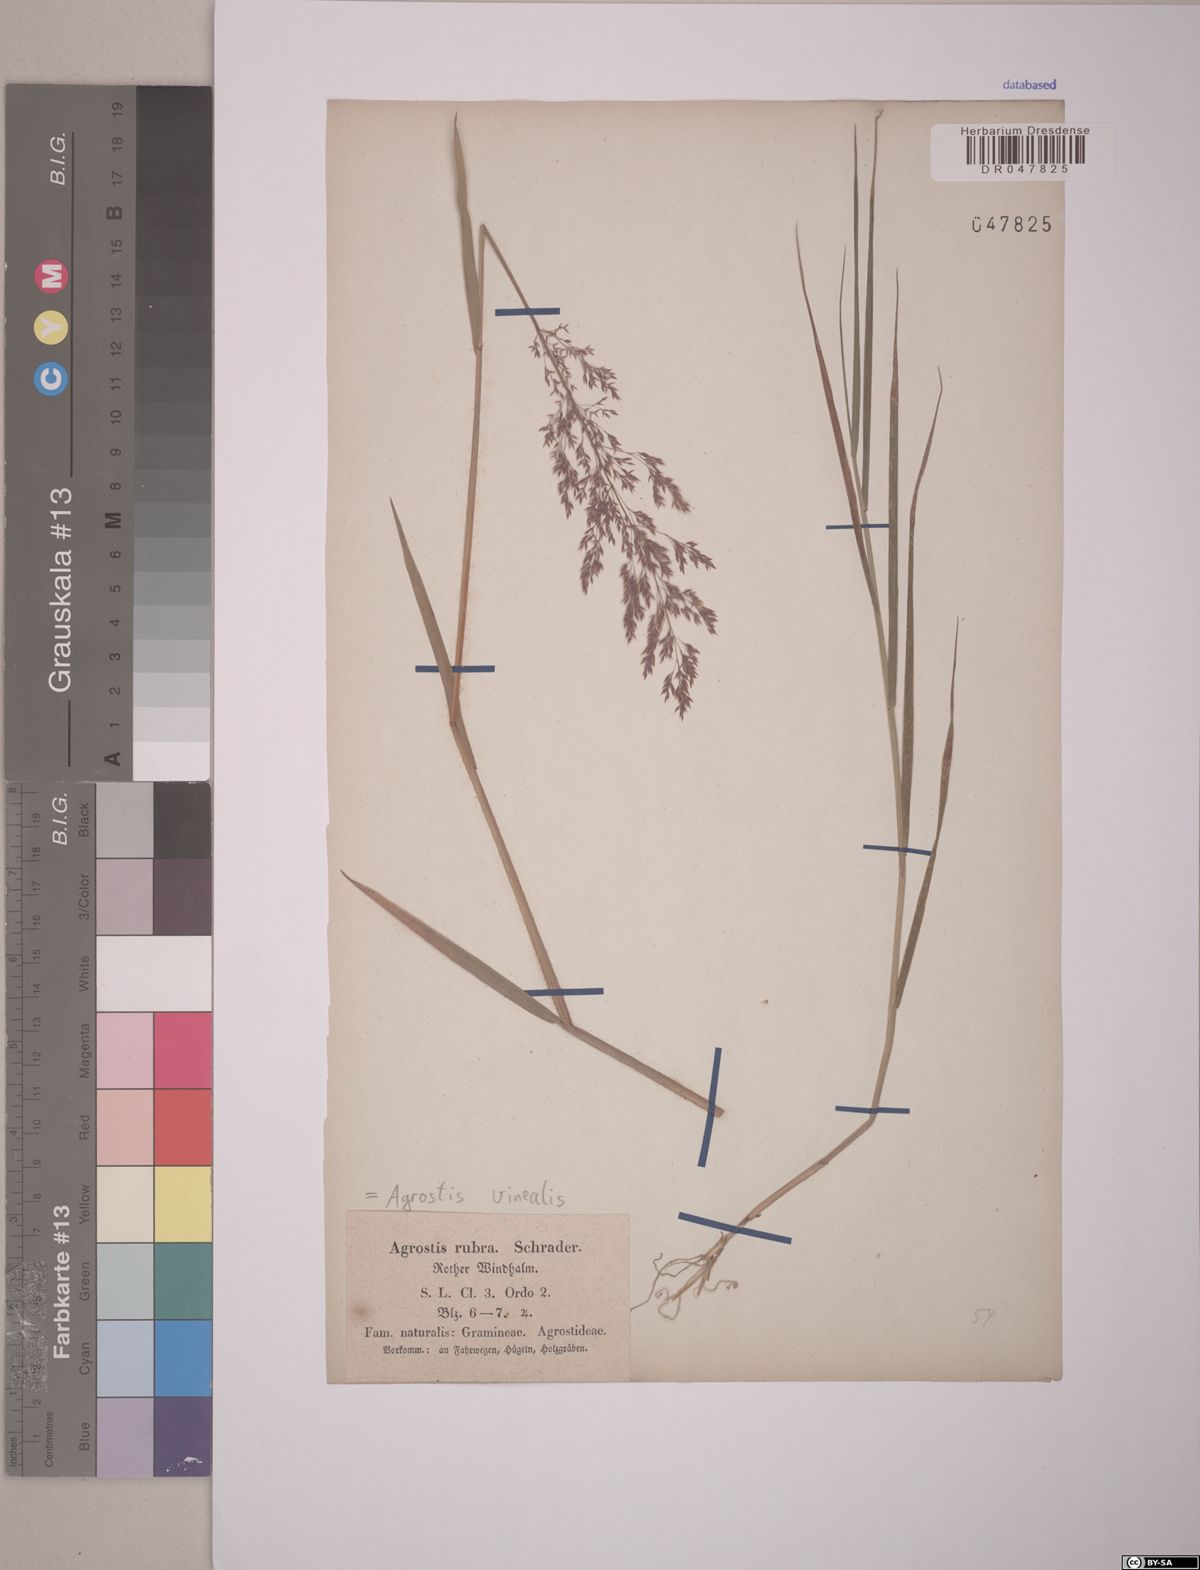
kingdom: Plantae
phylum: Tracheophyta
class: Liliopsida
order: Poales
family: Poaceae
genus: Agrostis
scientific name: Agrostis vinealis
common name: Brown bent
